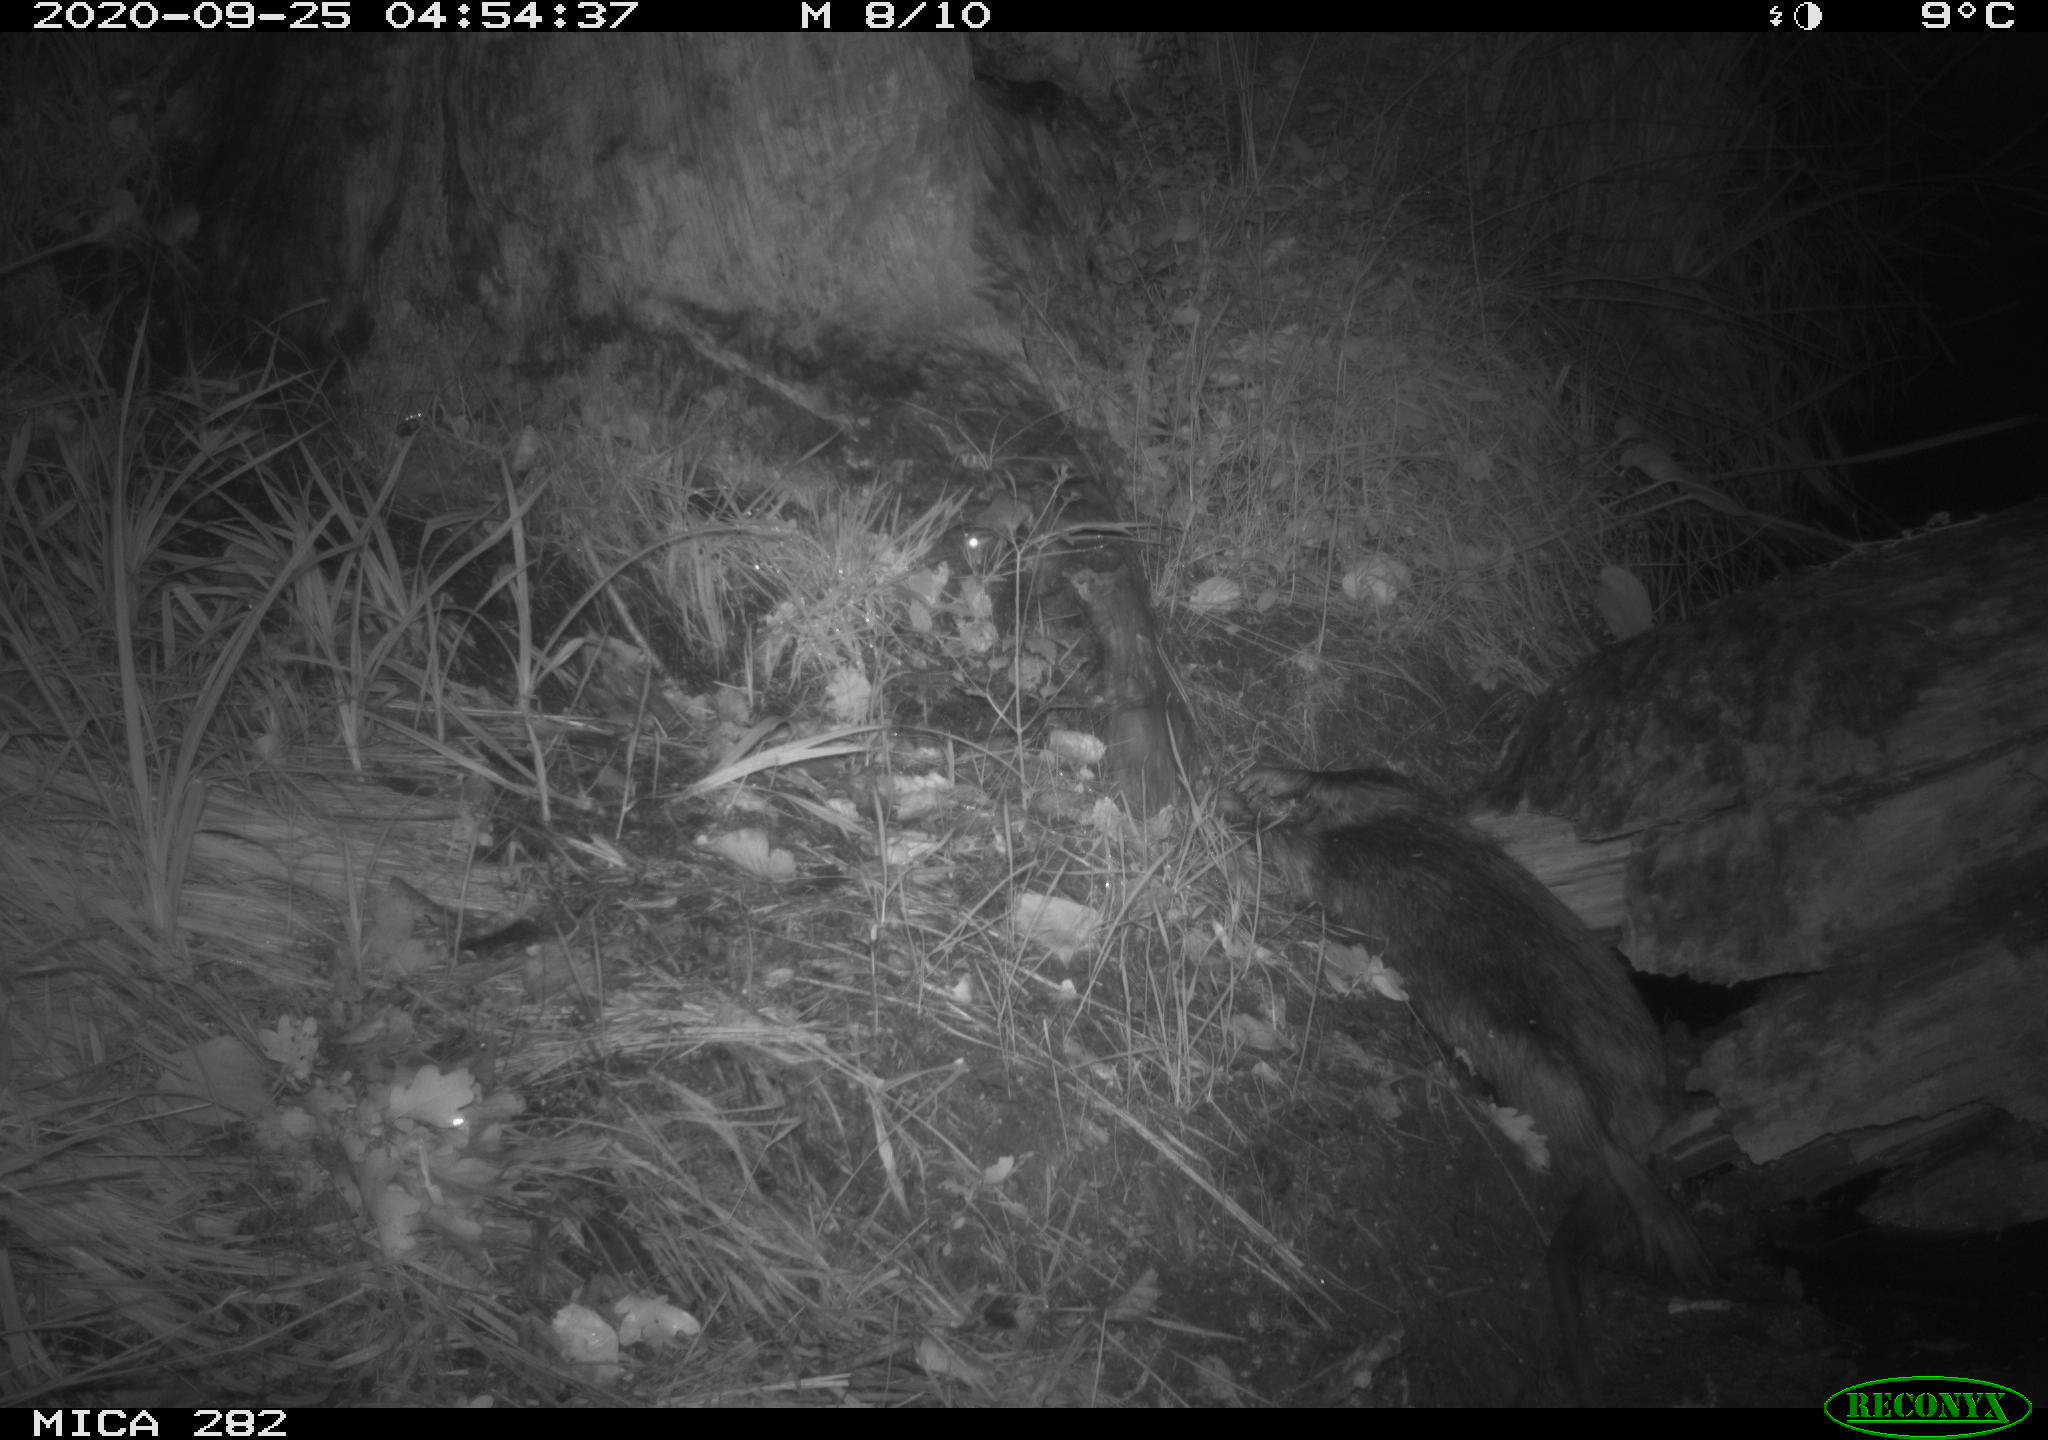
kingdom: Animalia
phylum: Chordata
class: Mammalia
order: Soricomorpha
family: Soricidae
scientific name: Soricidae
